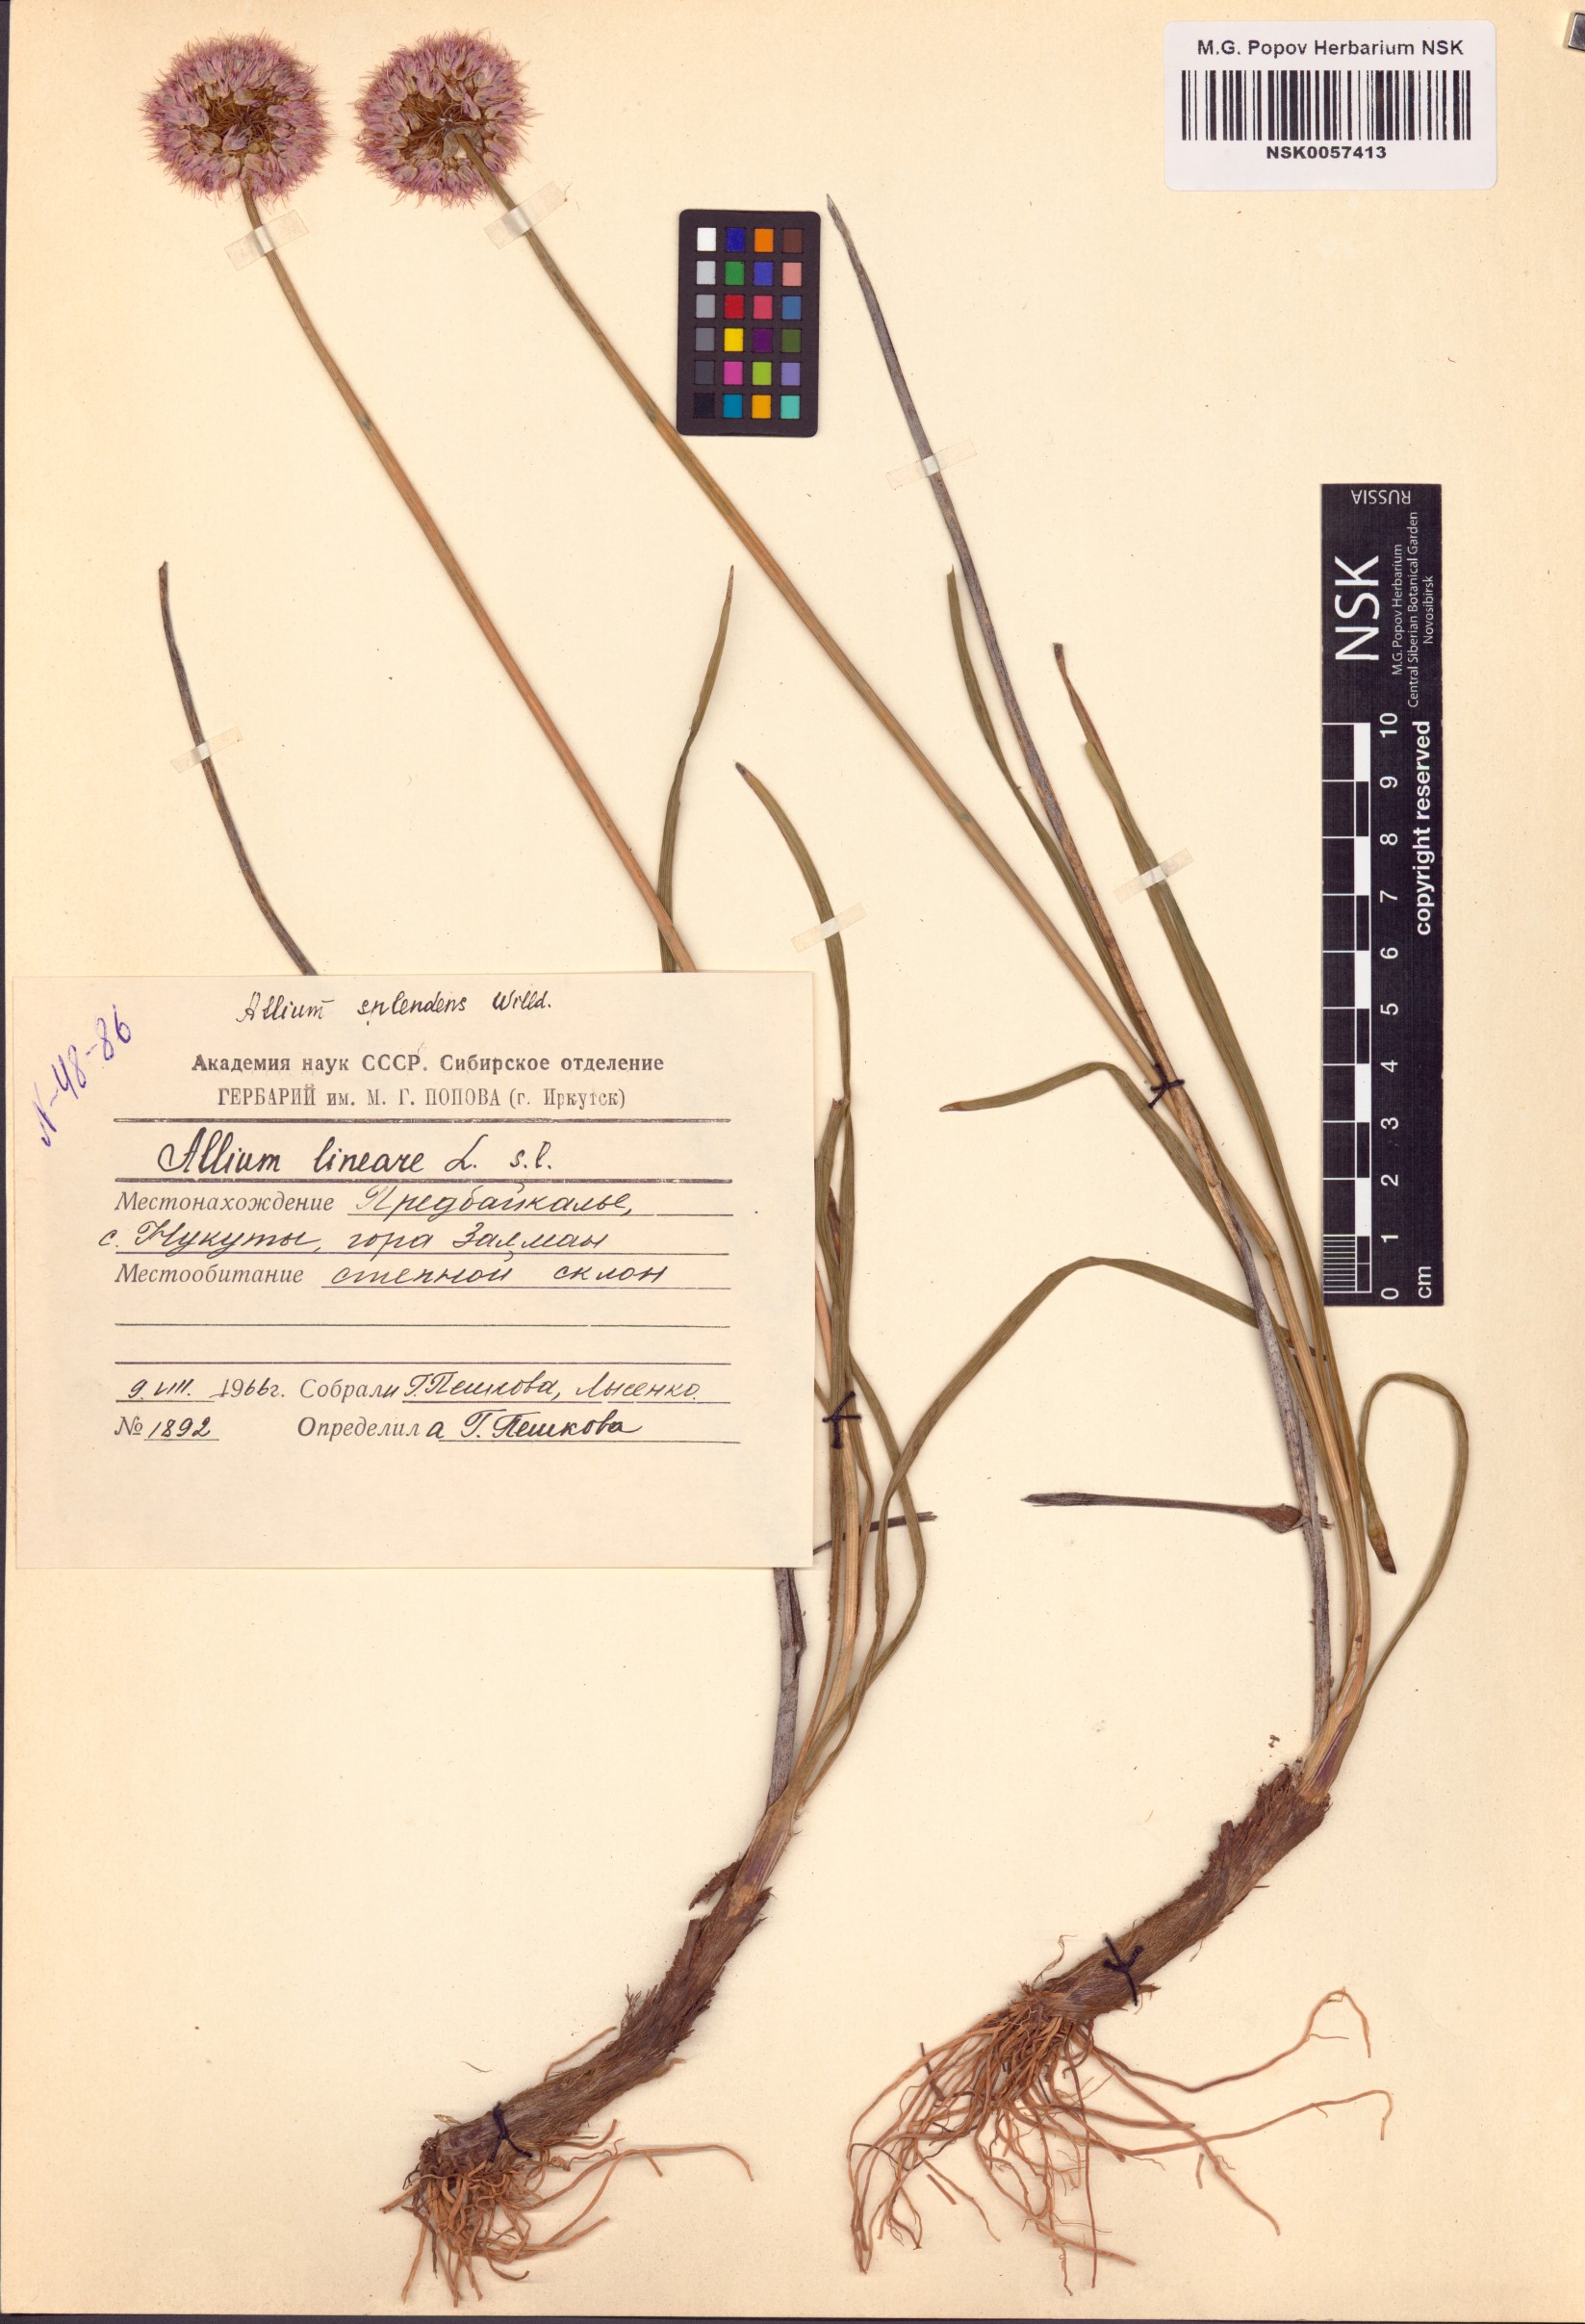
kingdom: Plantae
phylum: Tracheophyta
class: Liliopsida
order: Asparagales
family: Amaryllidaceae
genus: Allium
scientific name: Allium splendens
